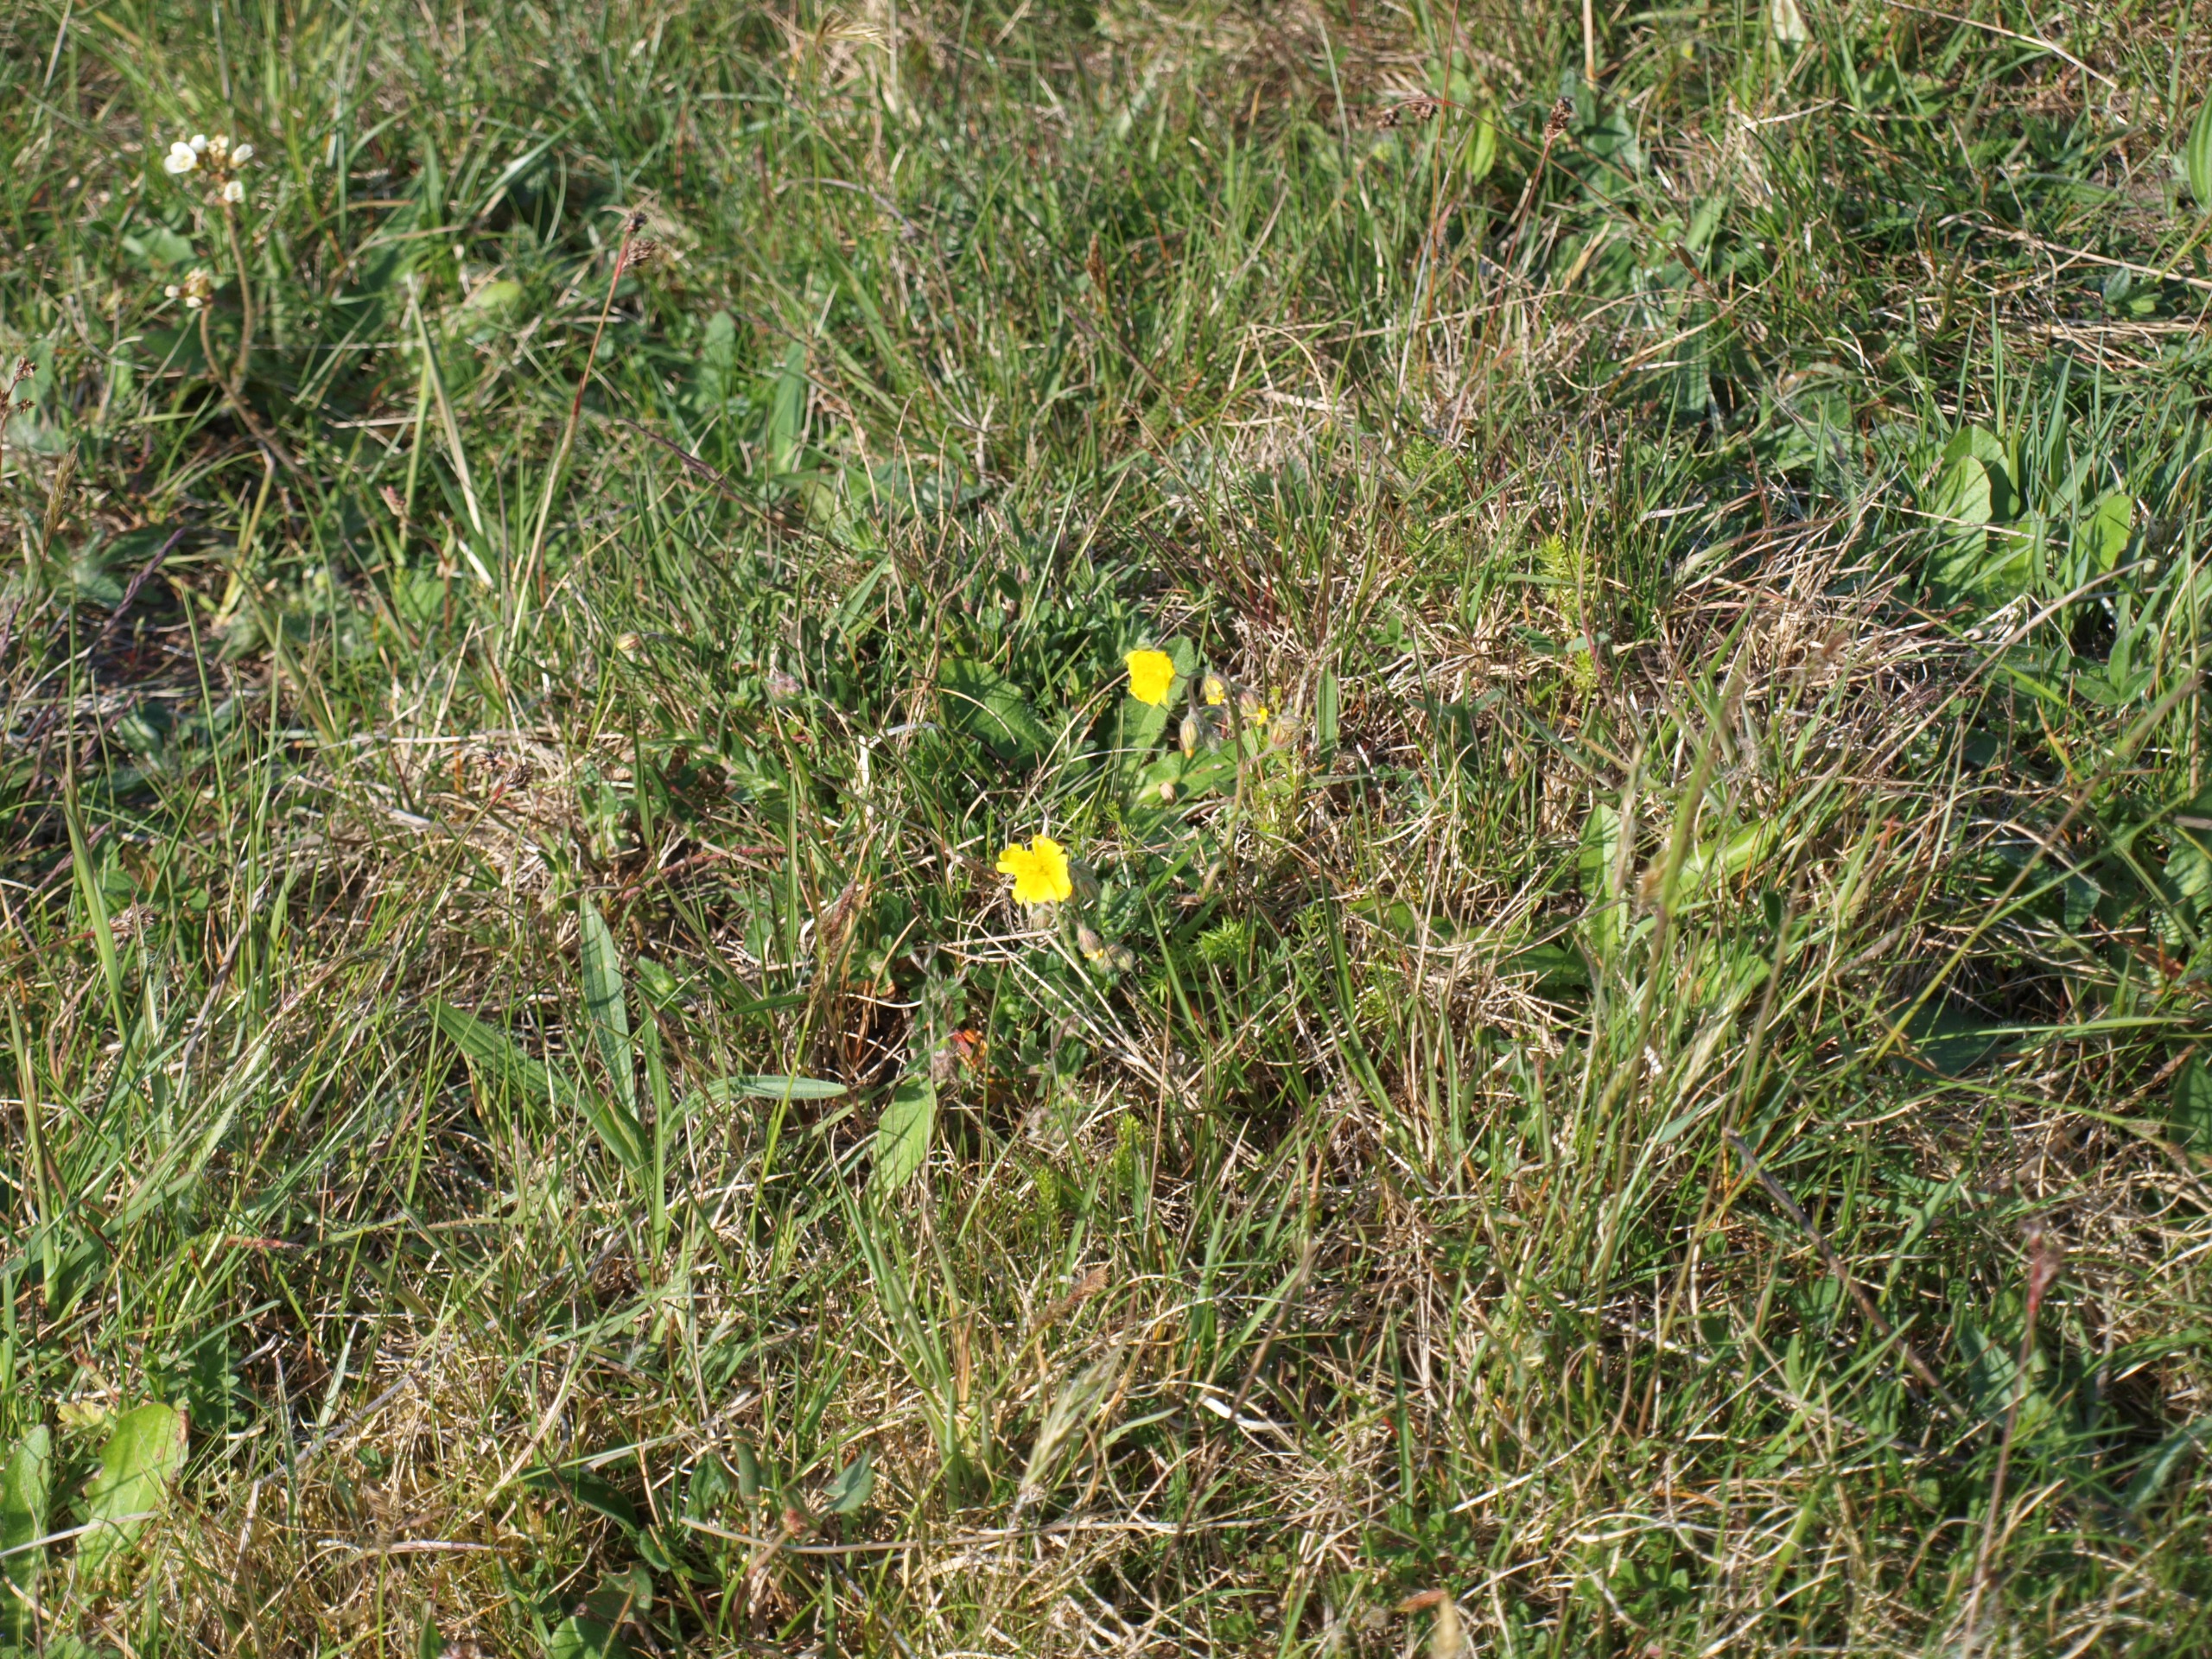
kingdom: Plantae
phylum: Tracheophyta
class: Magnoliopsida
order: Malvales
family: Cistaceae
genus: Helianthemum
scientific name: Helianthemum nummularium
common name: Soløje
